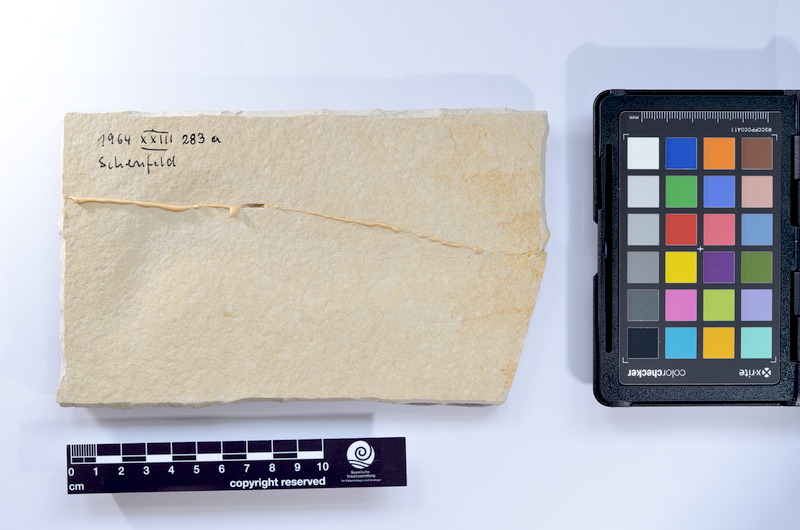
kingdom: Animalia
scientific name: Animalia
